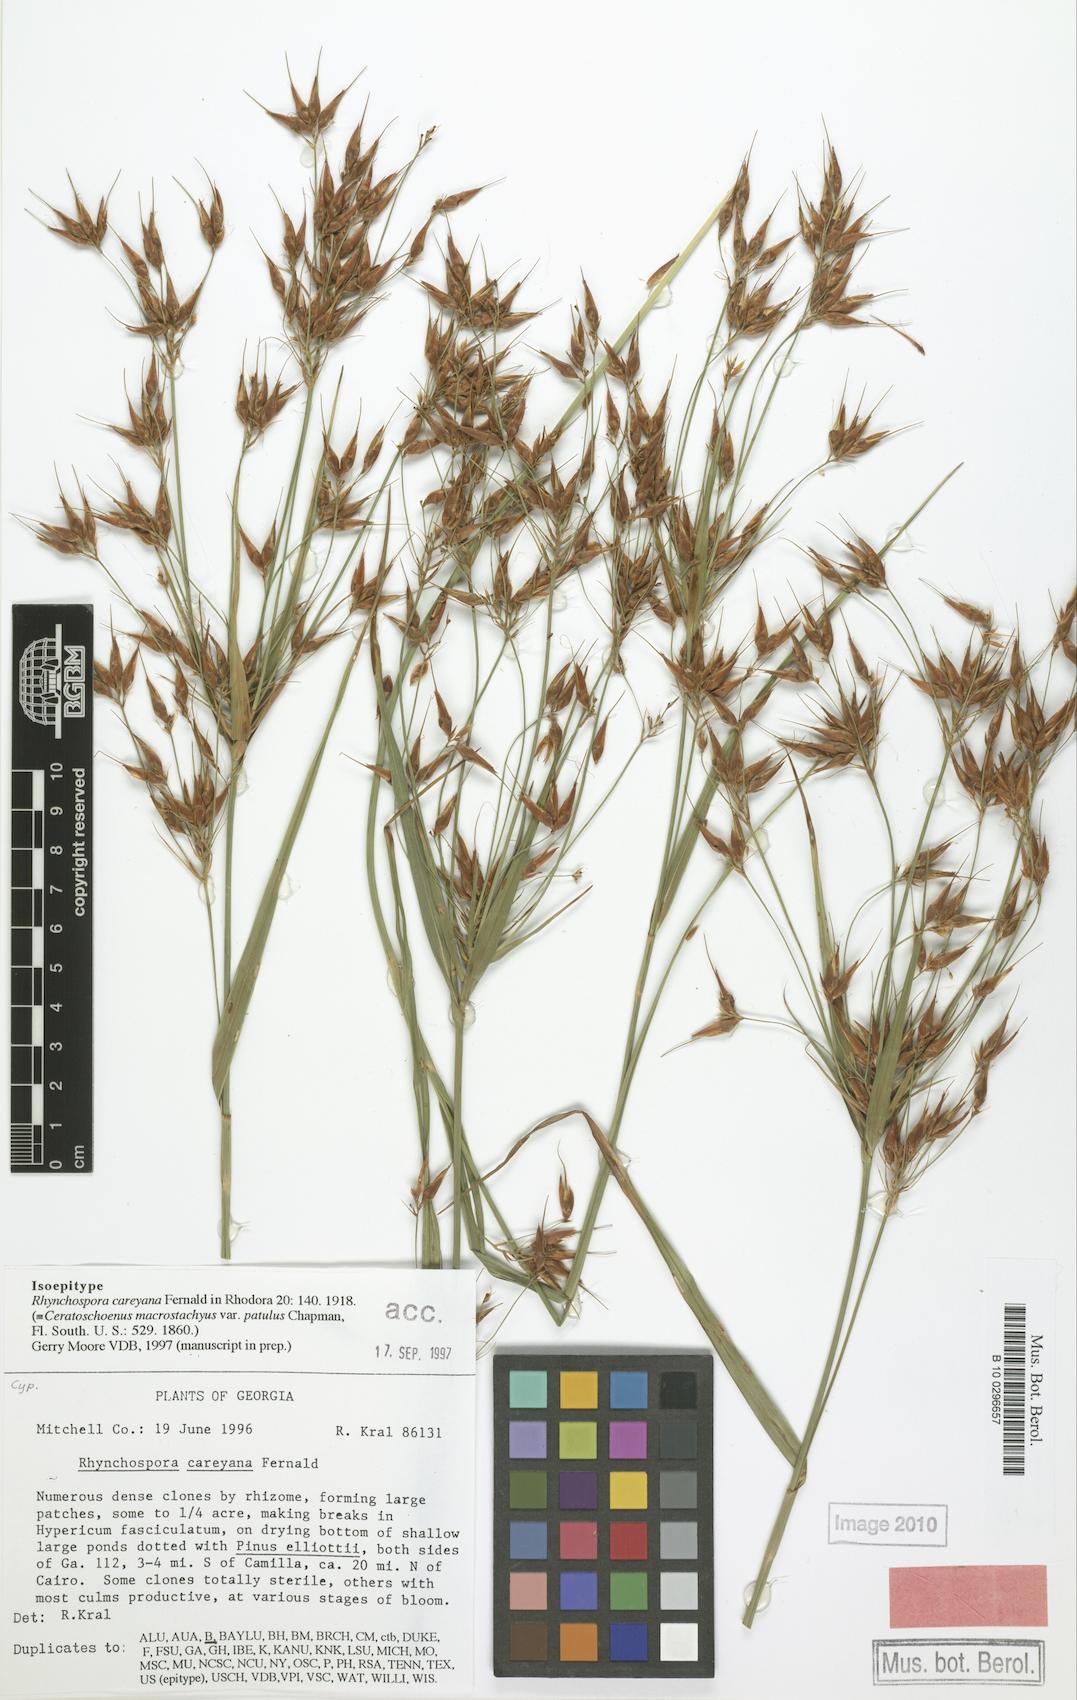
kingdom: Plantae
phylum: Tracheophyta
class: Liliopsida
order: Poales
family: Cyperaceae
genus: Rhynchospora
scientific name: Rhynchospora careyana
